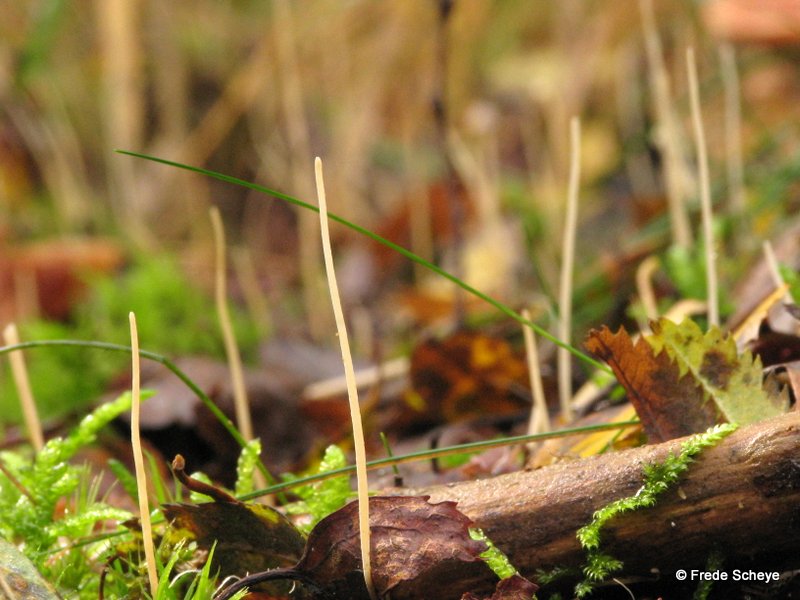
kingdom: Fungi
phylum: Basidiomycota
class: Agaricomycetes
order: Agaricales
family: Typhulaceae
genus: Typhula
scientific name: Typhula juncea
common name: trådagtig rørkølle
